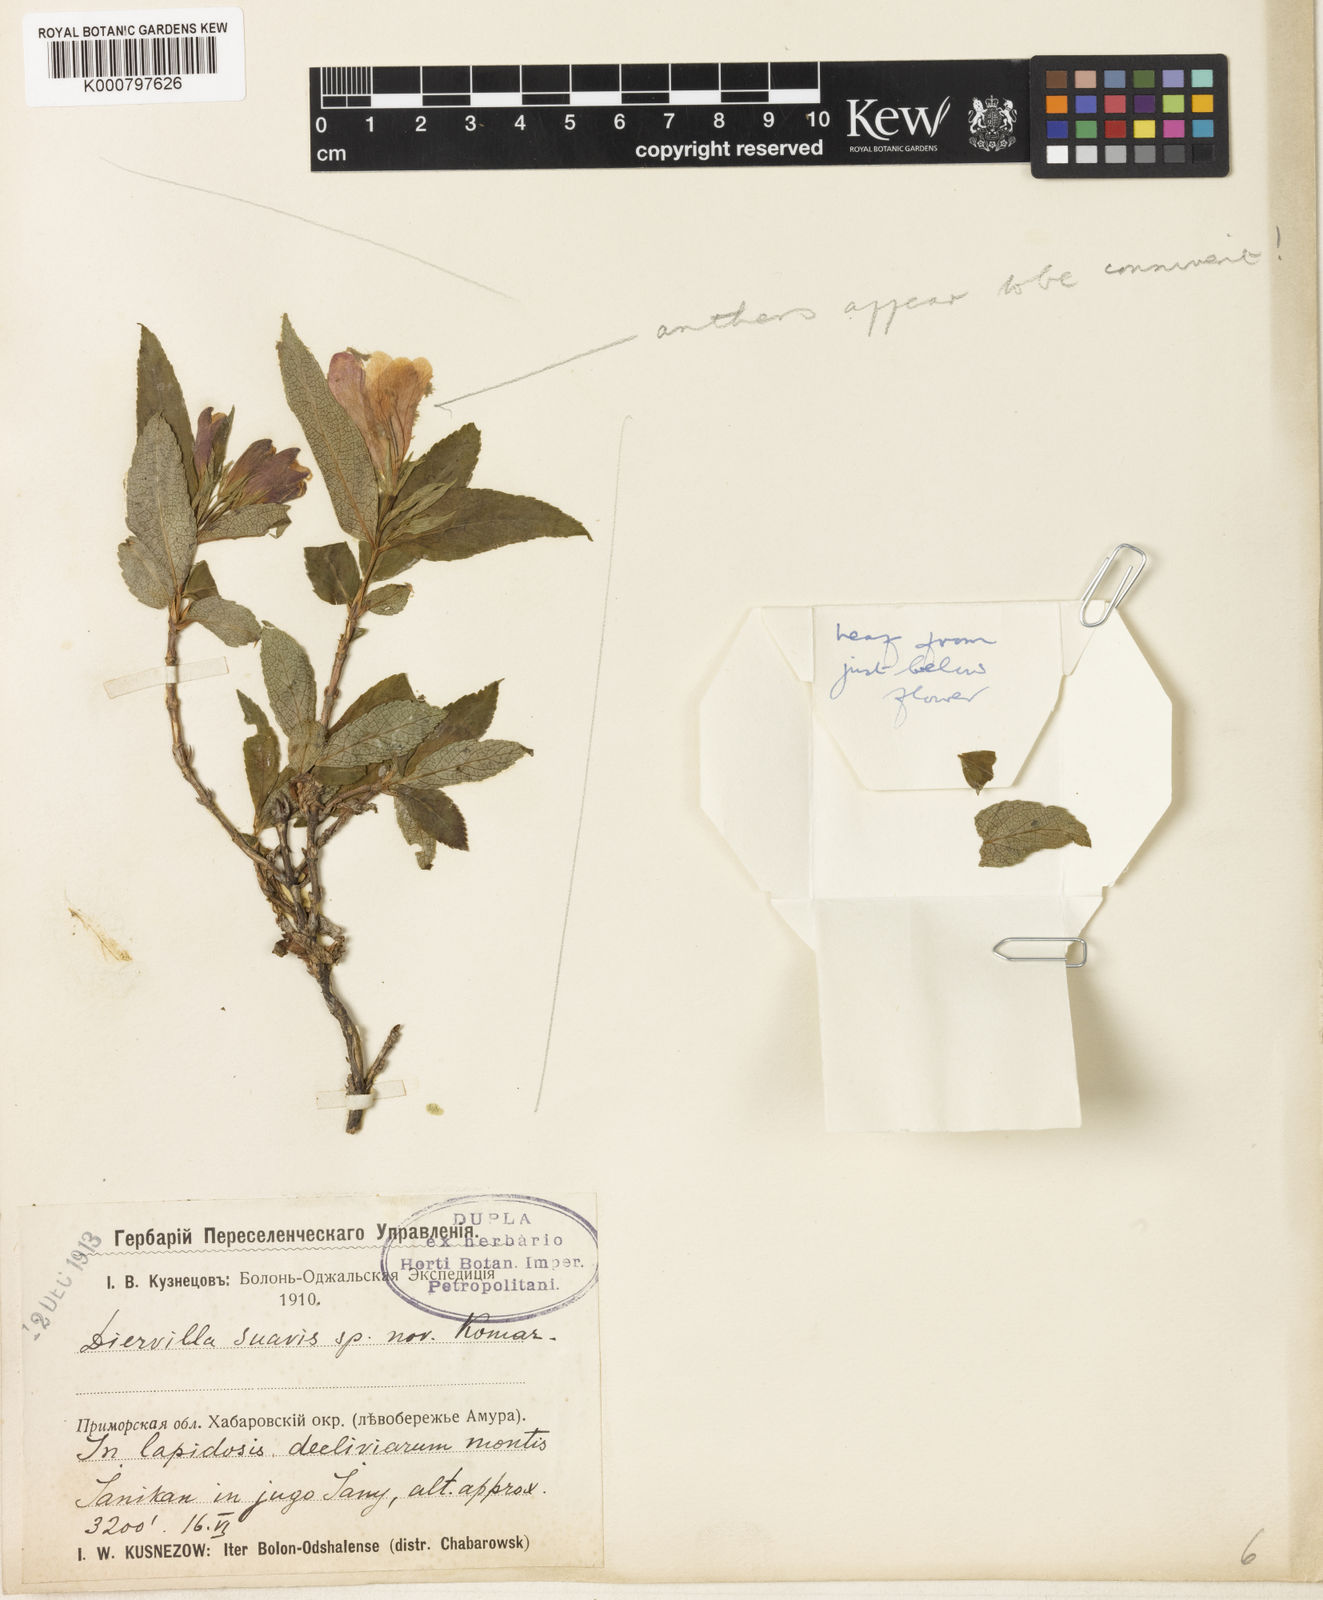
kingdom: Plantae
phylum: Tracheophyta
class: Magnoliopsida
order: Dipsacales
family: Caprifoliaceae
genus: Weigela
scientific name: Weigela suavis
